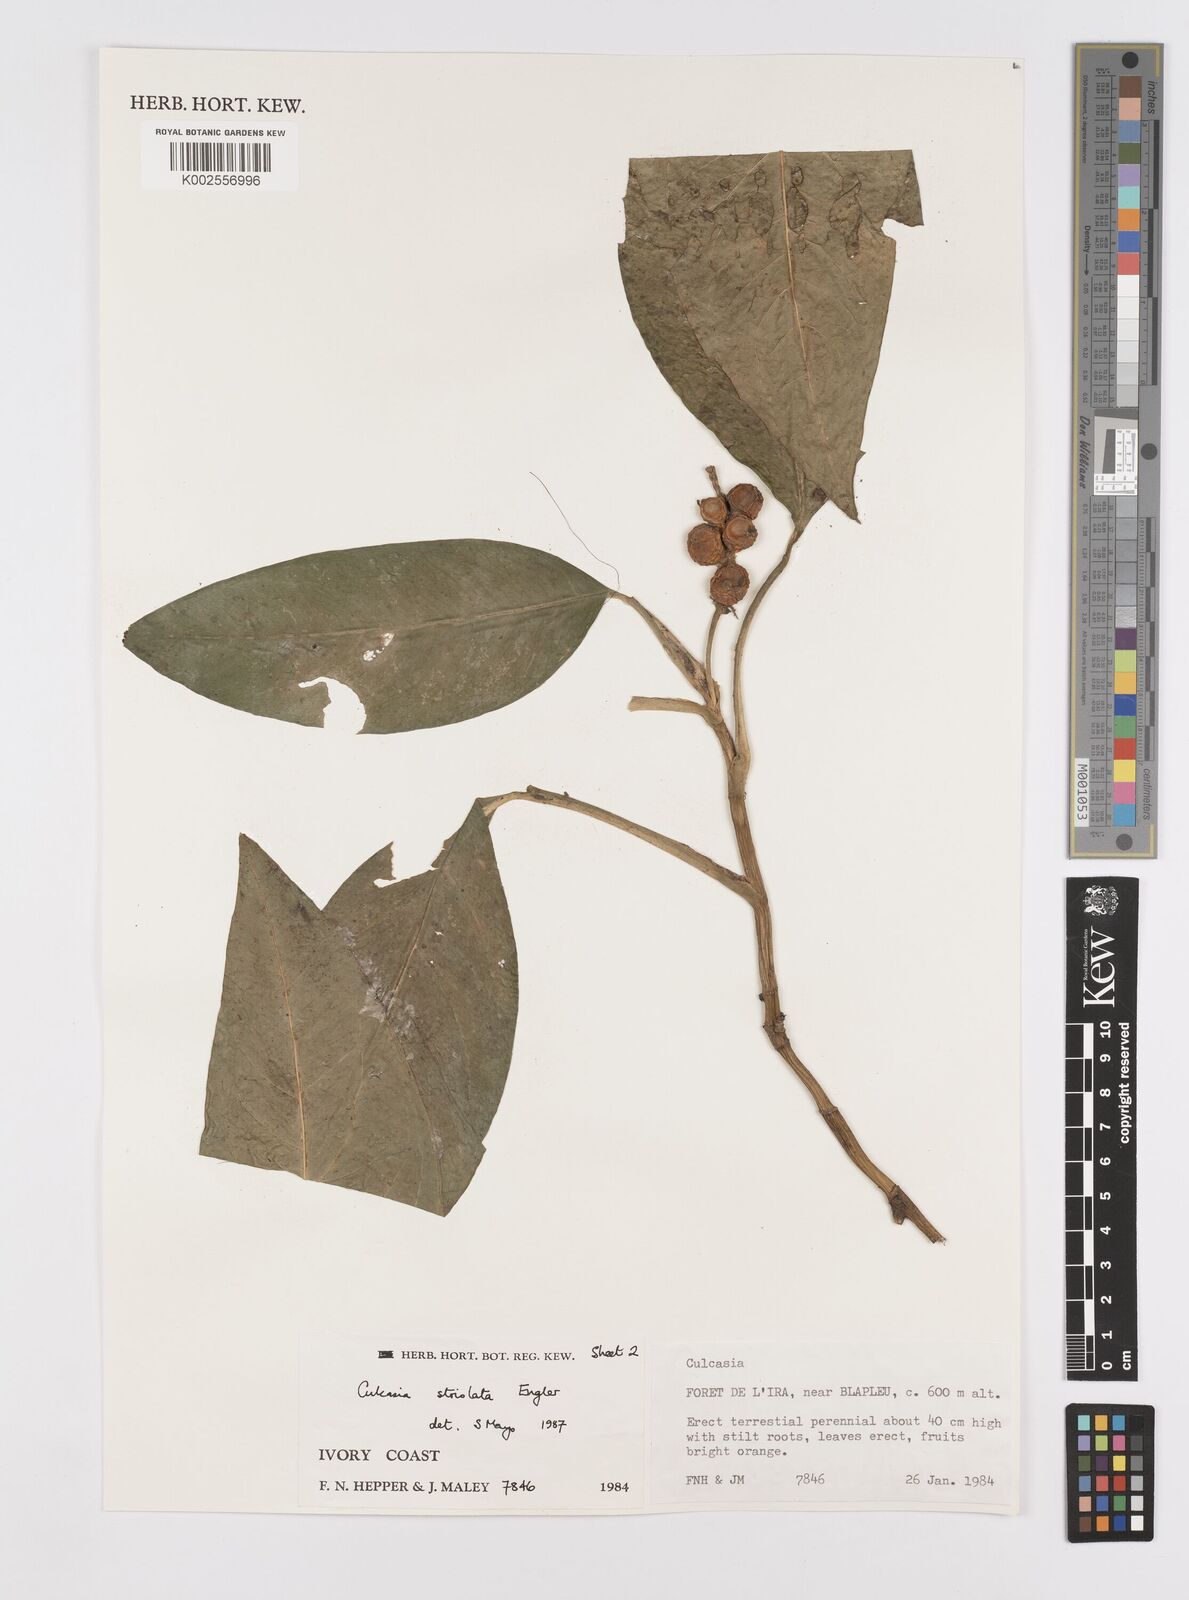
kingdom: Plantae
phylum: Tracheophyta
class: Liliopsida
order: Alismatales
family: Araceae
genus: Culcasia
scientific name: Culcasia striolata
